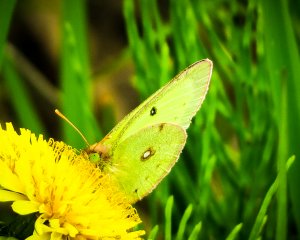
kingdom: Animalia
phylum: Arthropoda
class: Insecta
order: Lepidoptera
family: Pieridae
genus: Colias
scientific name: Colias philodice
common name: Clouded Sulphur
